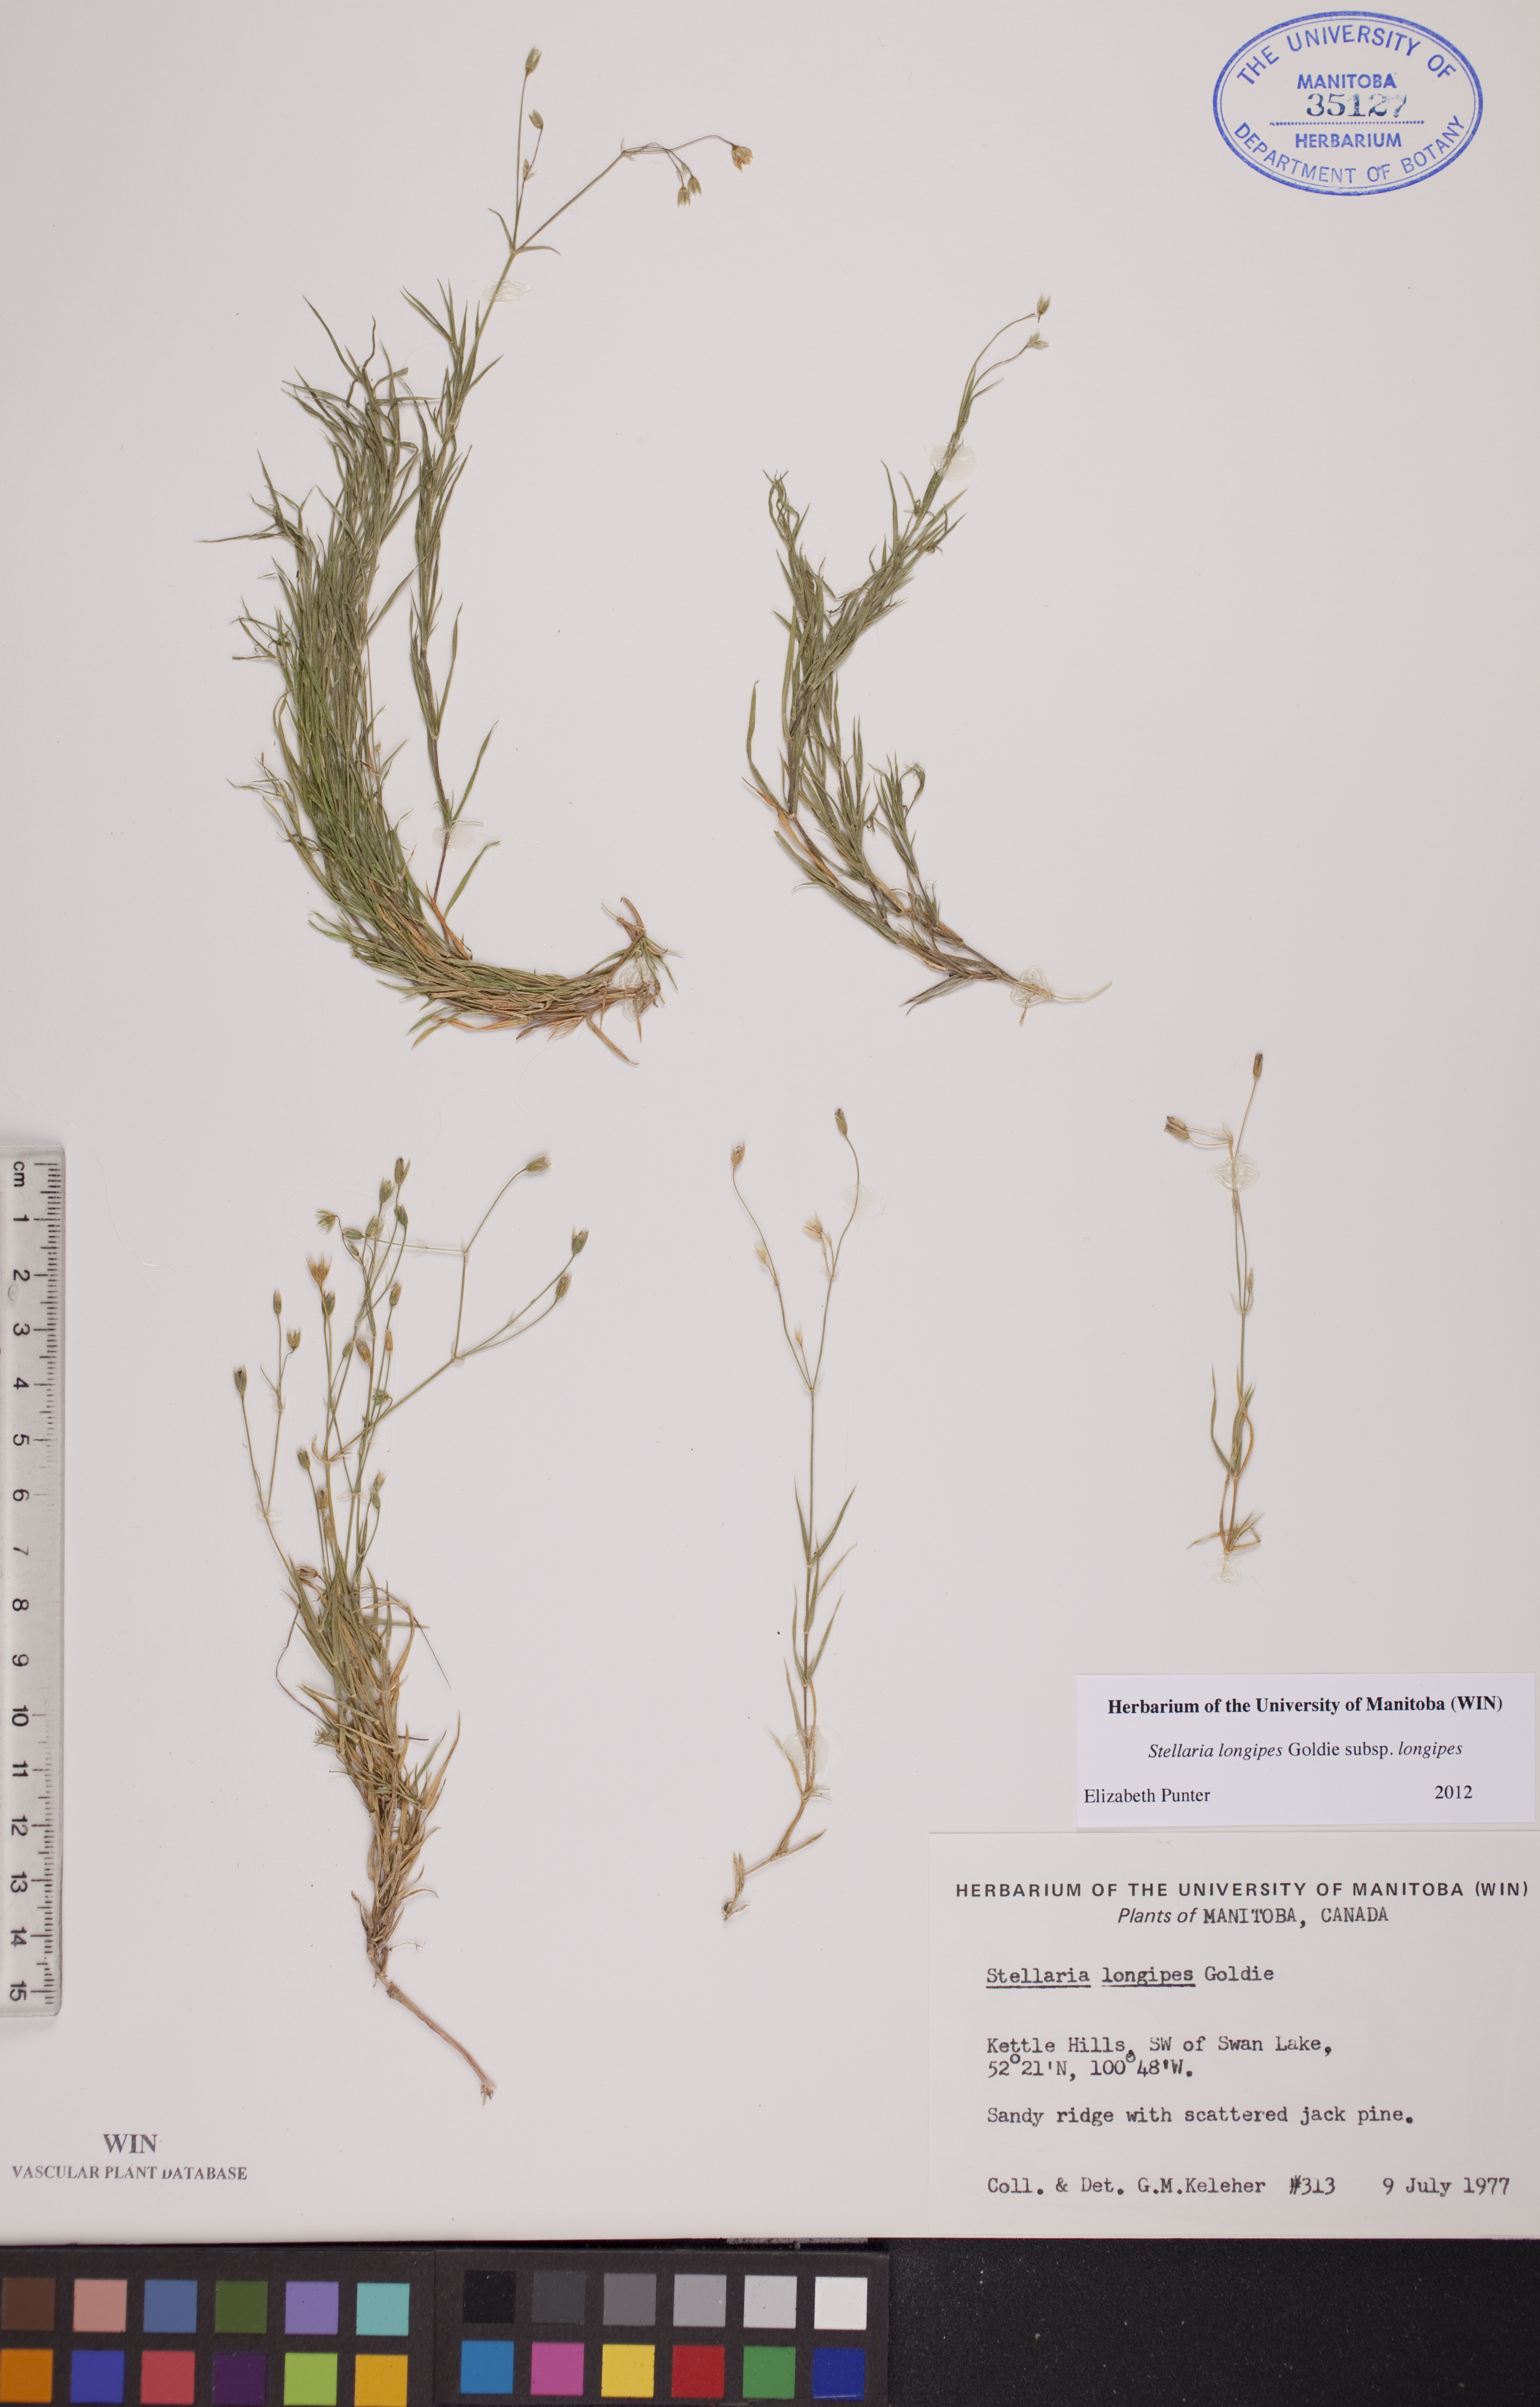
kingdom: Plantae
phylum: Tracheophyta
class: Magnoliopsida
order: Caryophyllales
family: Caryophyllaceae
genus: Stellaria
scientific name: Stellaria longipes
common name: Goldie's starwort
